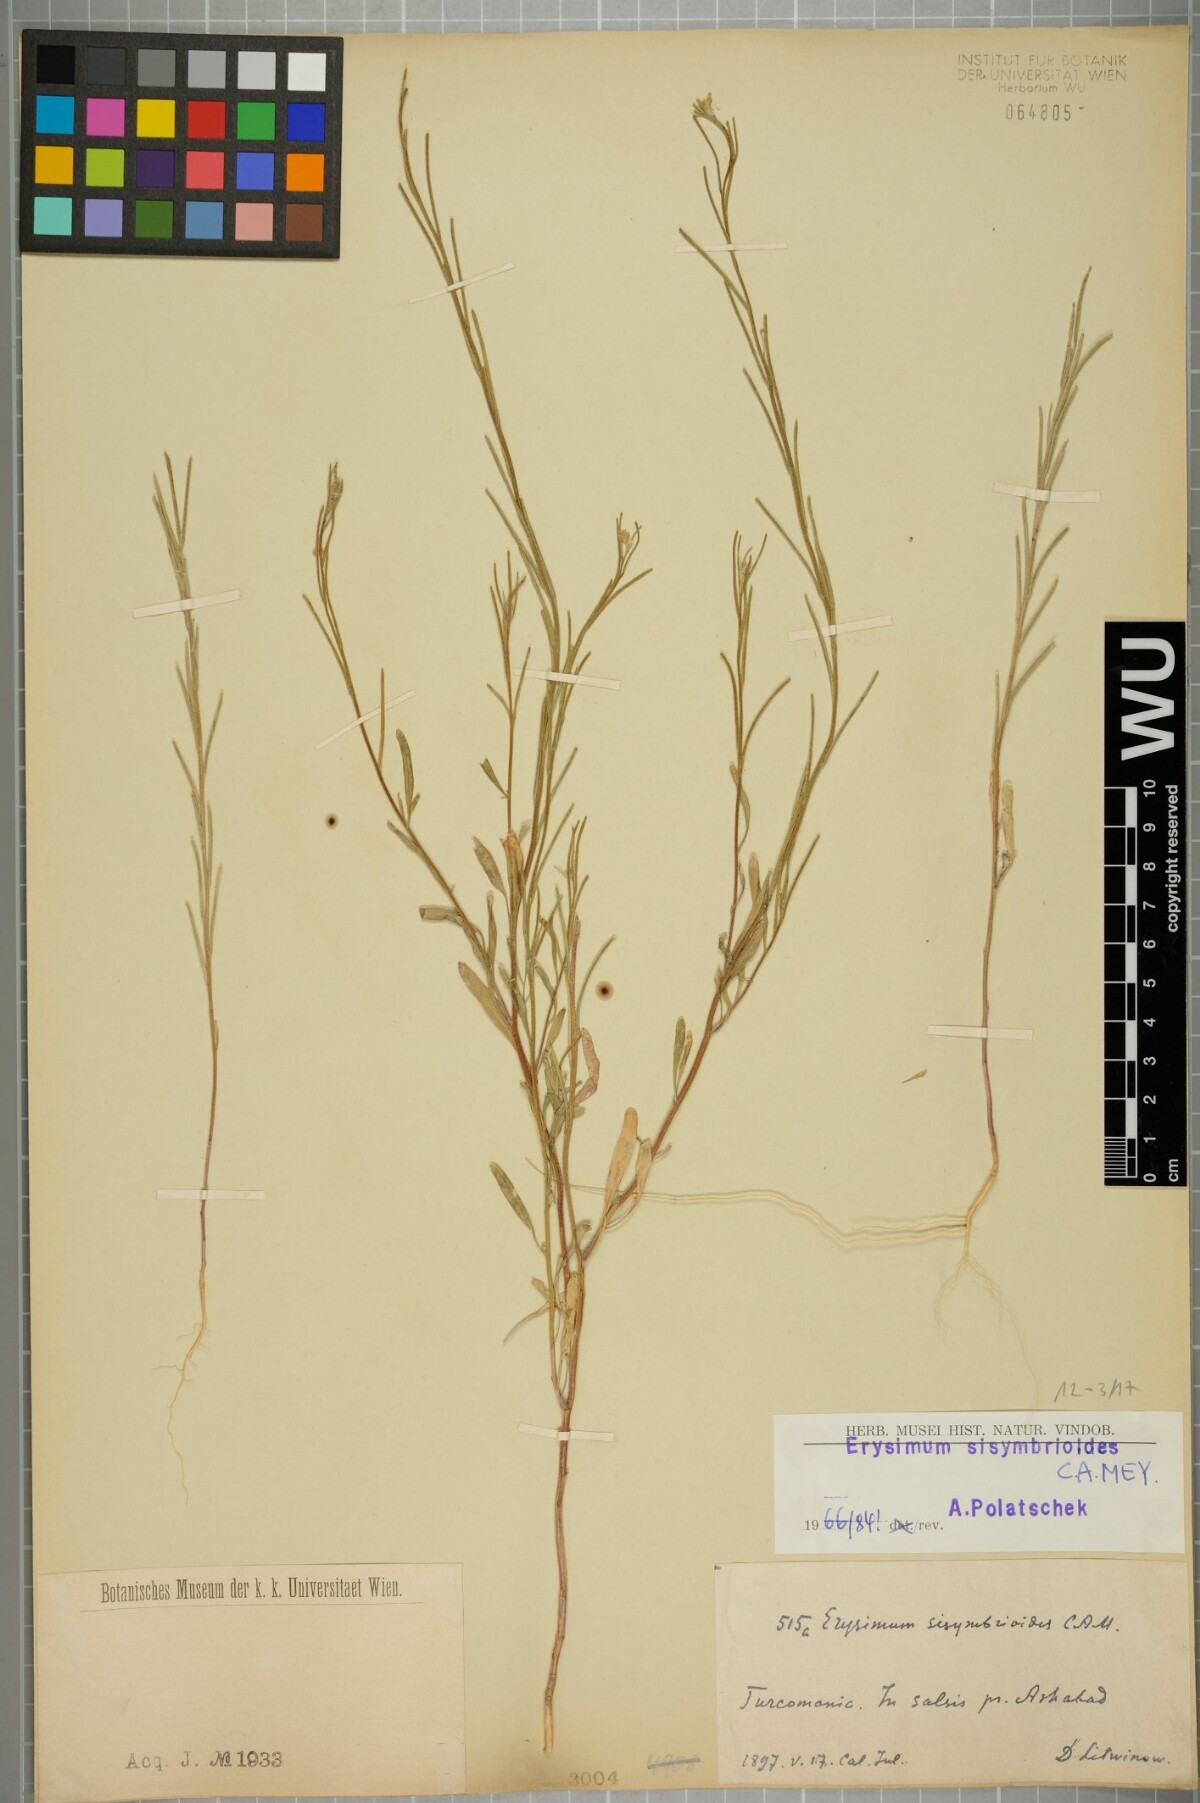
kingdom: Plantae
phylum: Tracheophyta
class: Magnoliopsida
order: Brassicales
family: Brassicaceae
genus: Erysimum
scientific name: Erysimum sisymbrioides
